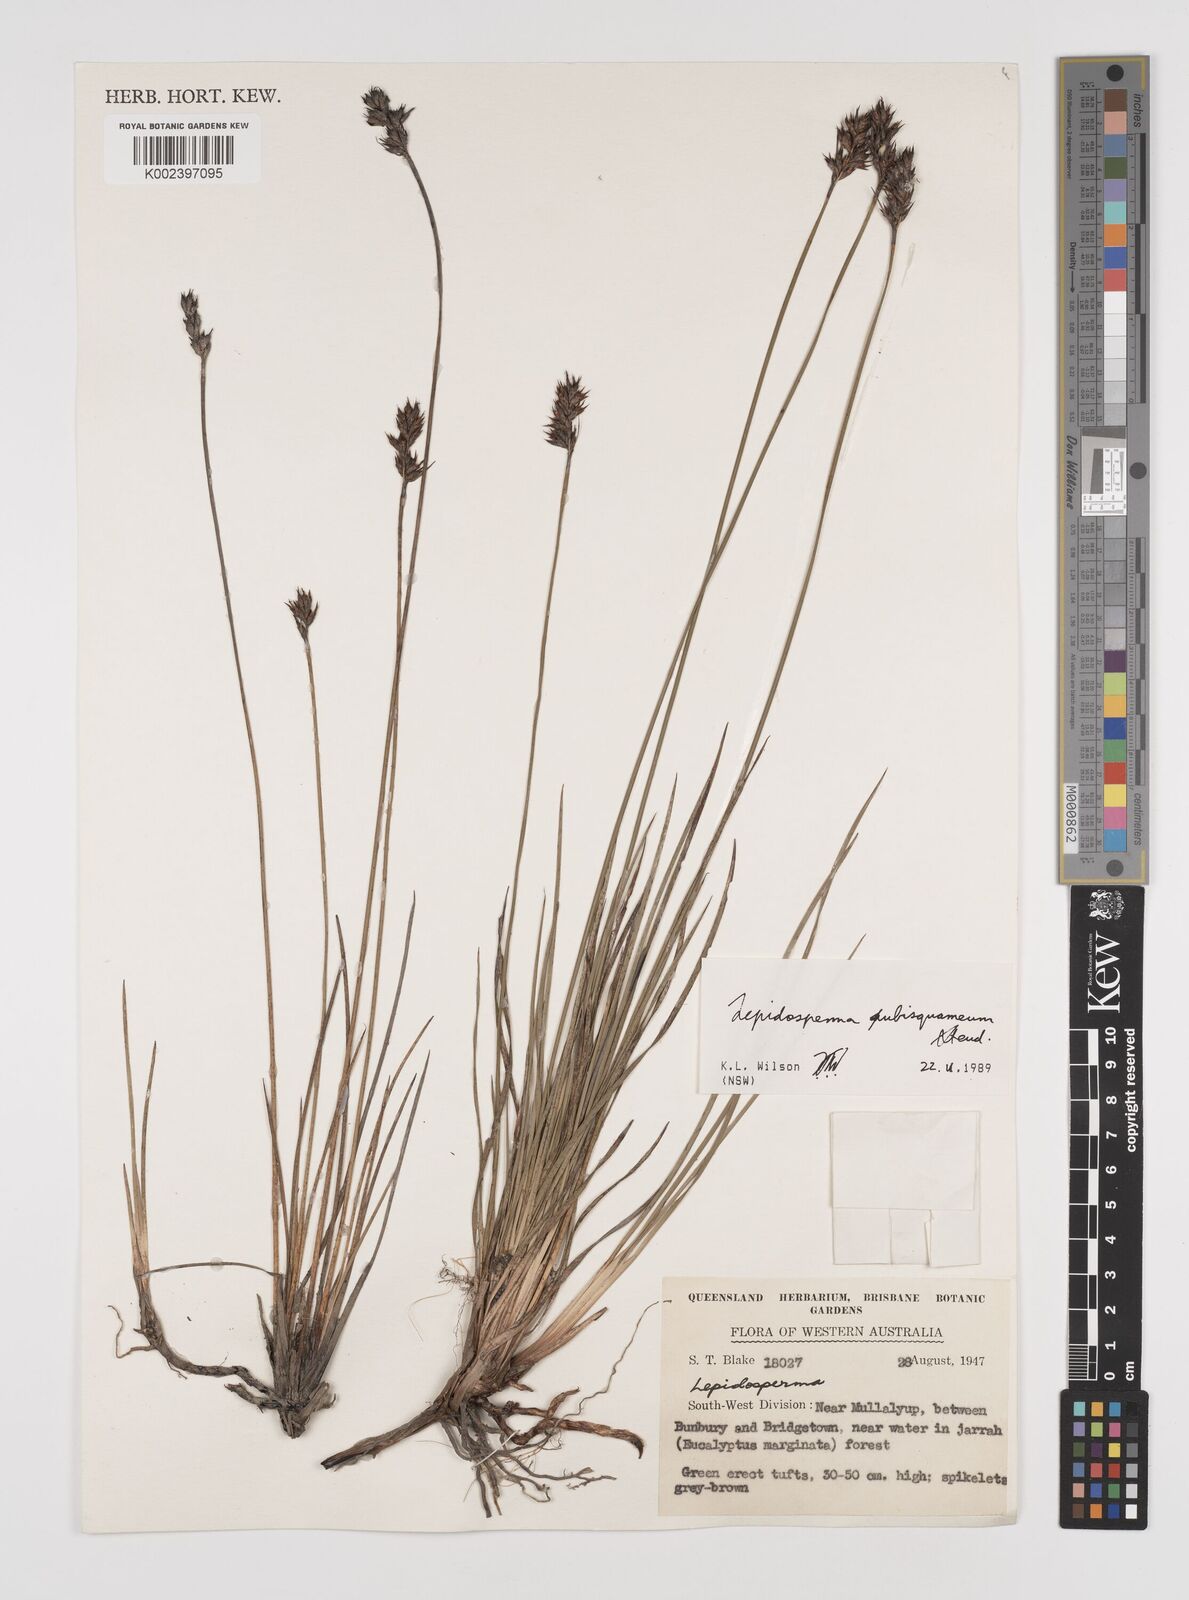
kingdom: Plantae
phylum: Tracheophyta
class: Liliopsida
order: Poales
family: Cyperaceae
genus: Lepidosperma
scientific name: Lepidosperma pubisquameum
